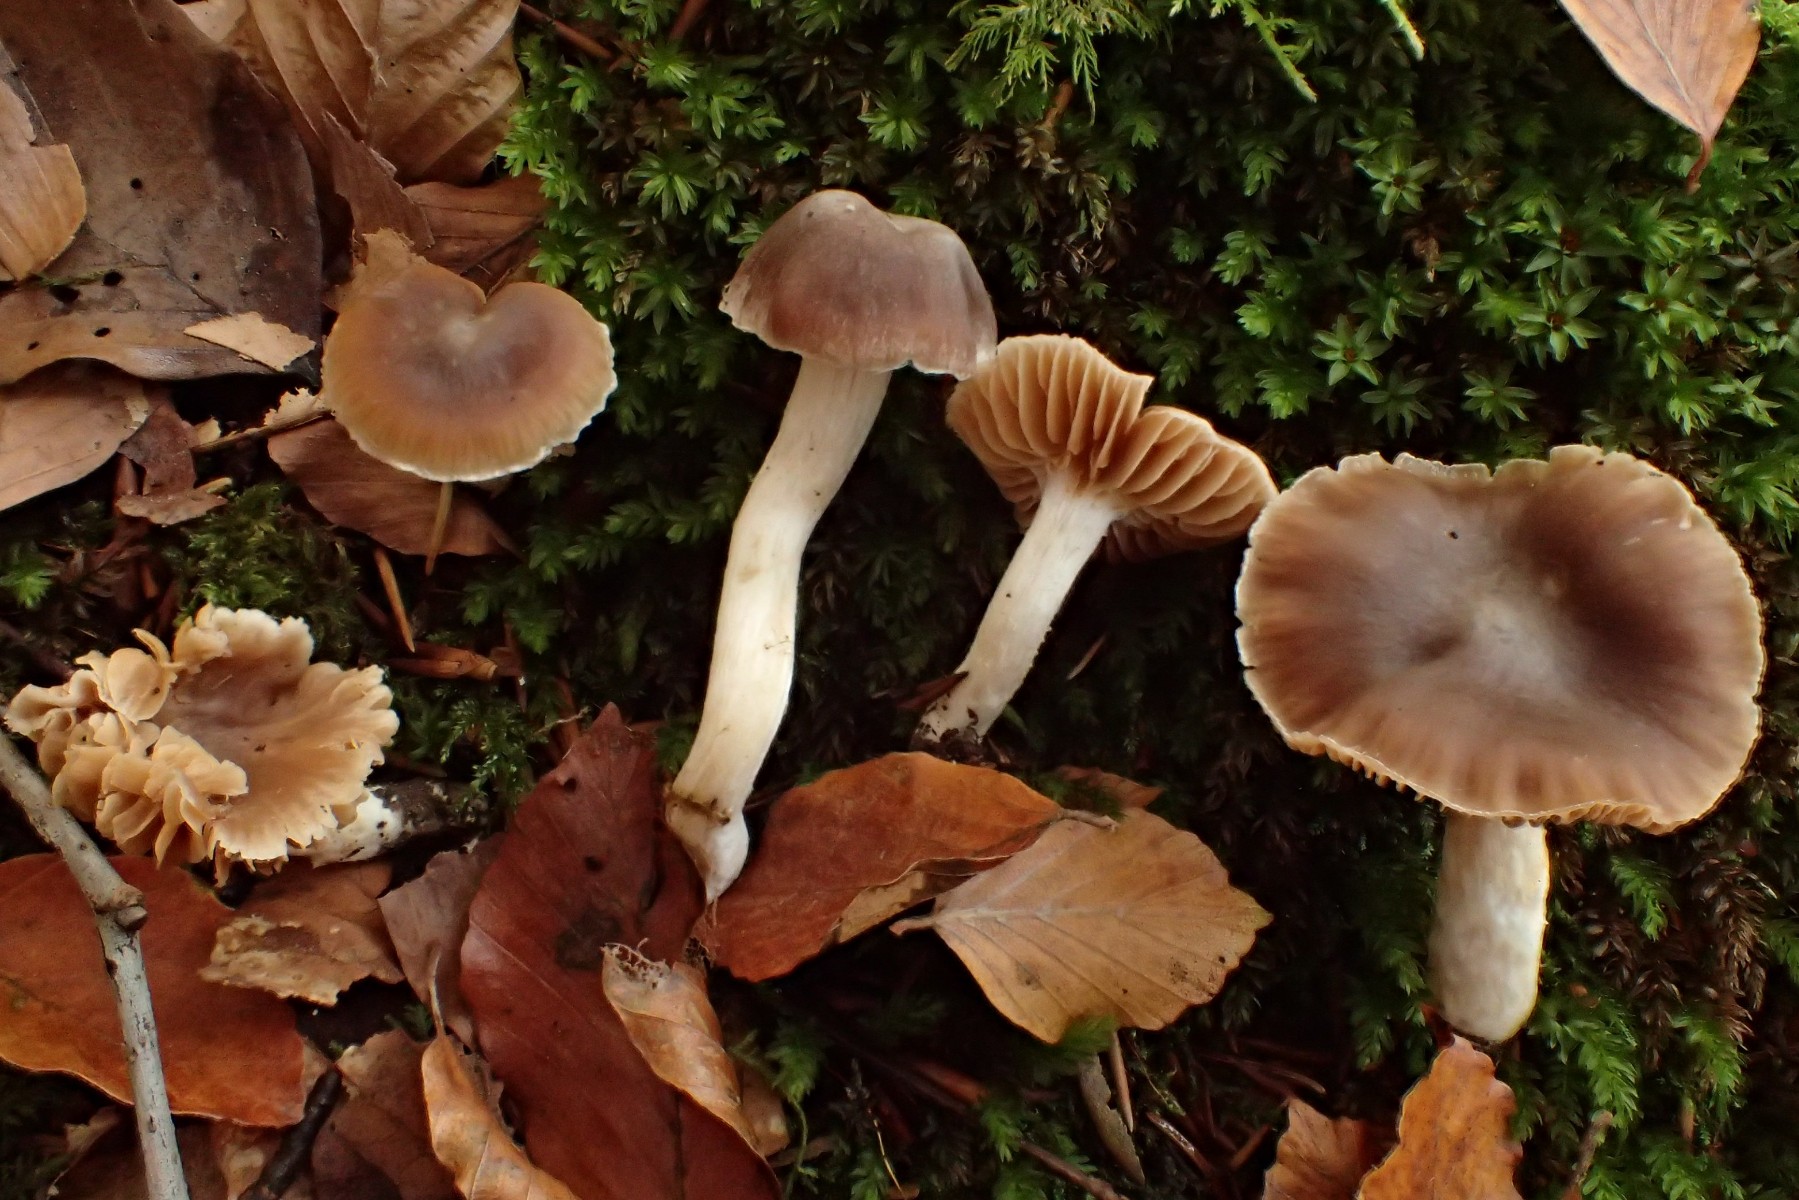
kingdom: Fungi
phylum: Basidiomycota
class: Agaricomycetes
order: Agaricales
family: Cortinariaceae
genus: Cortinarius
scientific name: Cortinarius fragrantior
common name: daddelbrun slørhat
